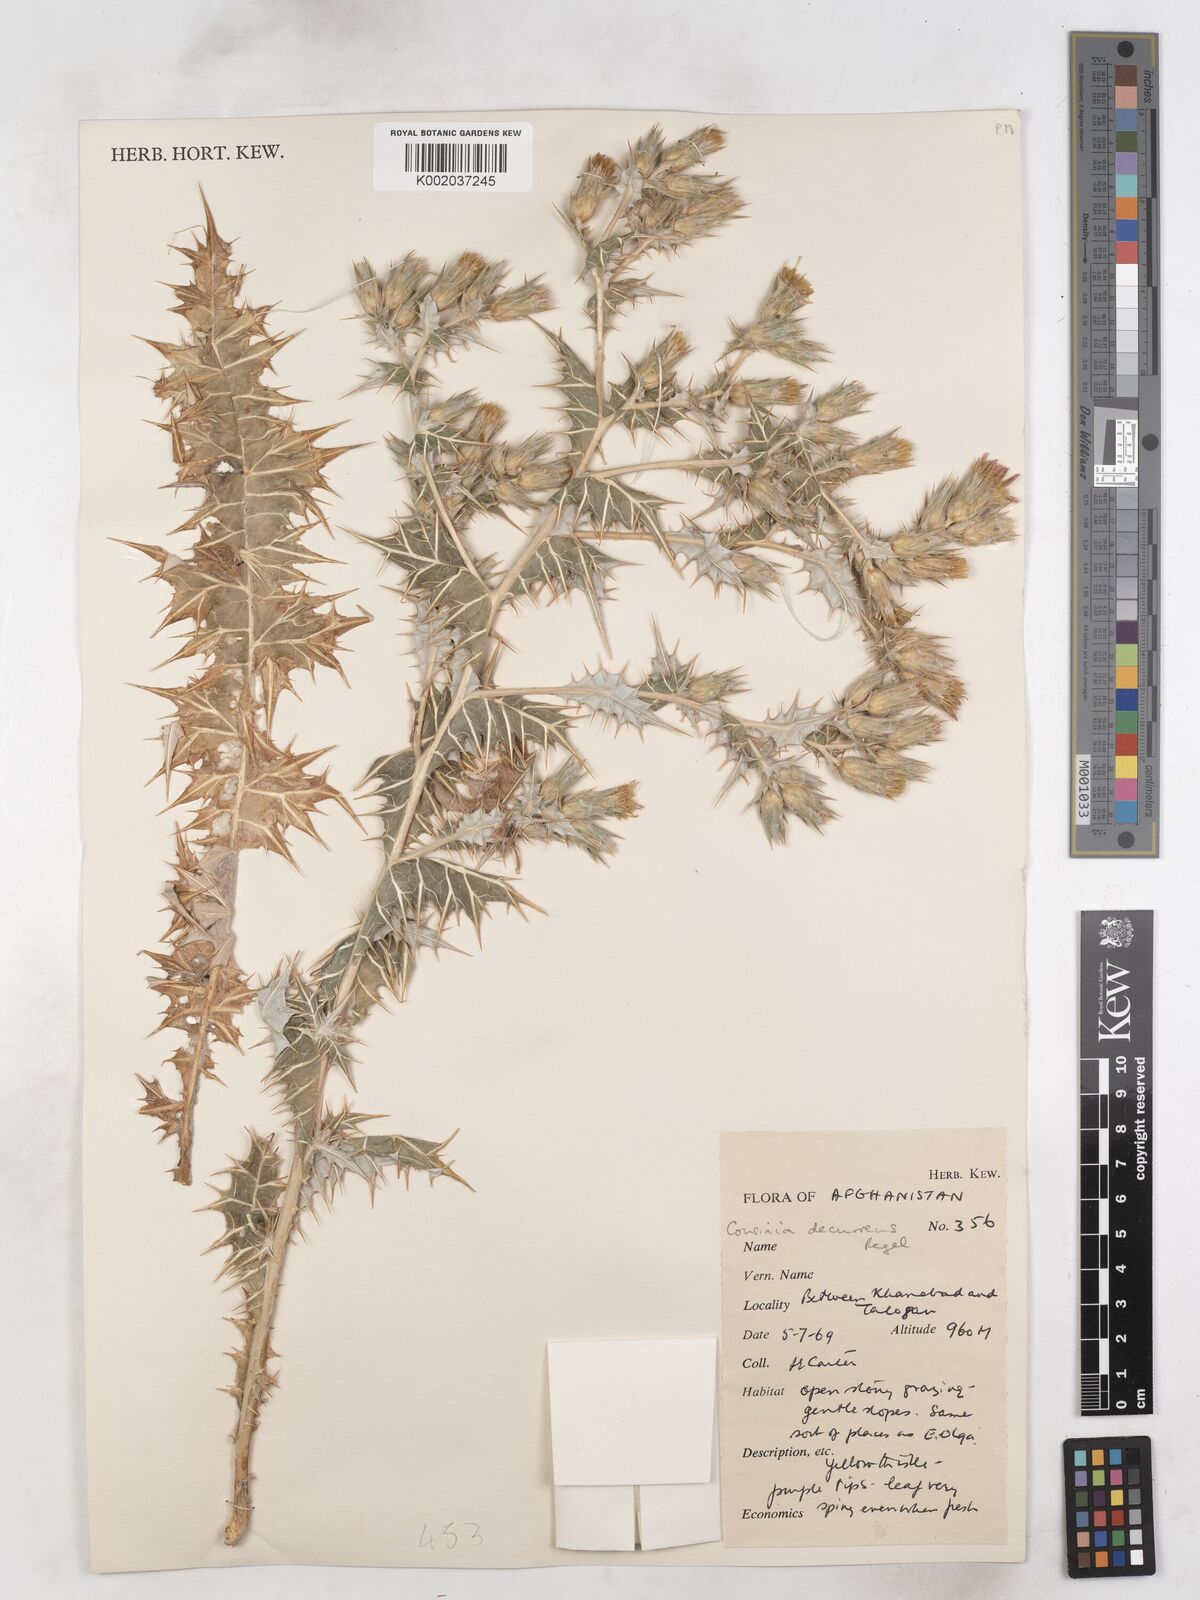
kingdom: Plantae
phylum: Tracheophyta
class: Magnoliopsida
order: Asterales
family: Asteraceae
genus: Cousinia
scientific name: Cousinia decurrens
